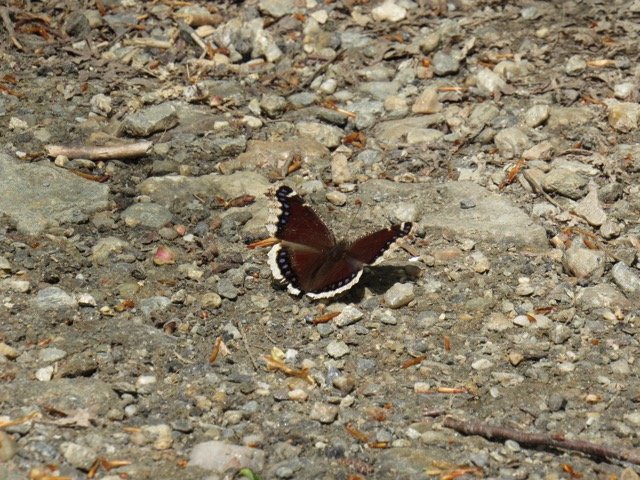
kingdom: Animalia
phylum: Arthropoda
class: Insecta
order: Lepidoptera
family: Nymphalidae
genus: Nymphalis
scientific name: Nymphalis antiopa
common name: Mourning Cloak
